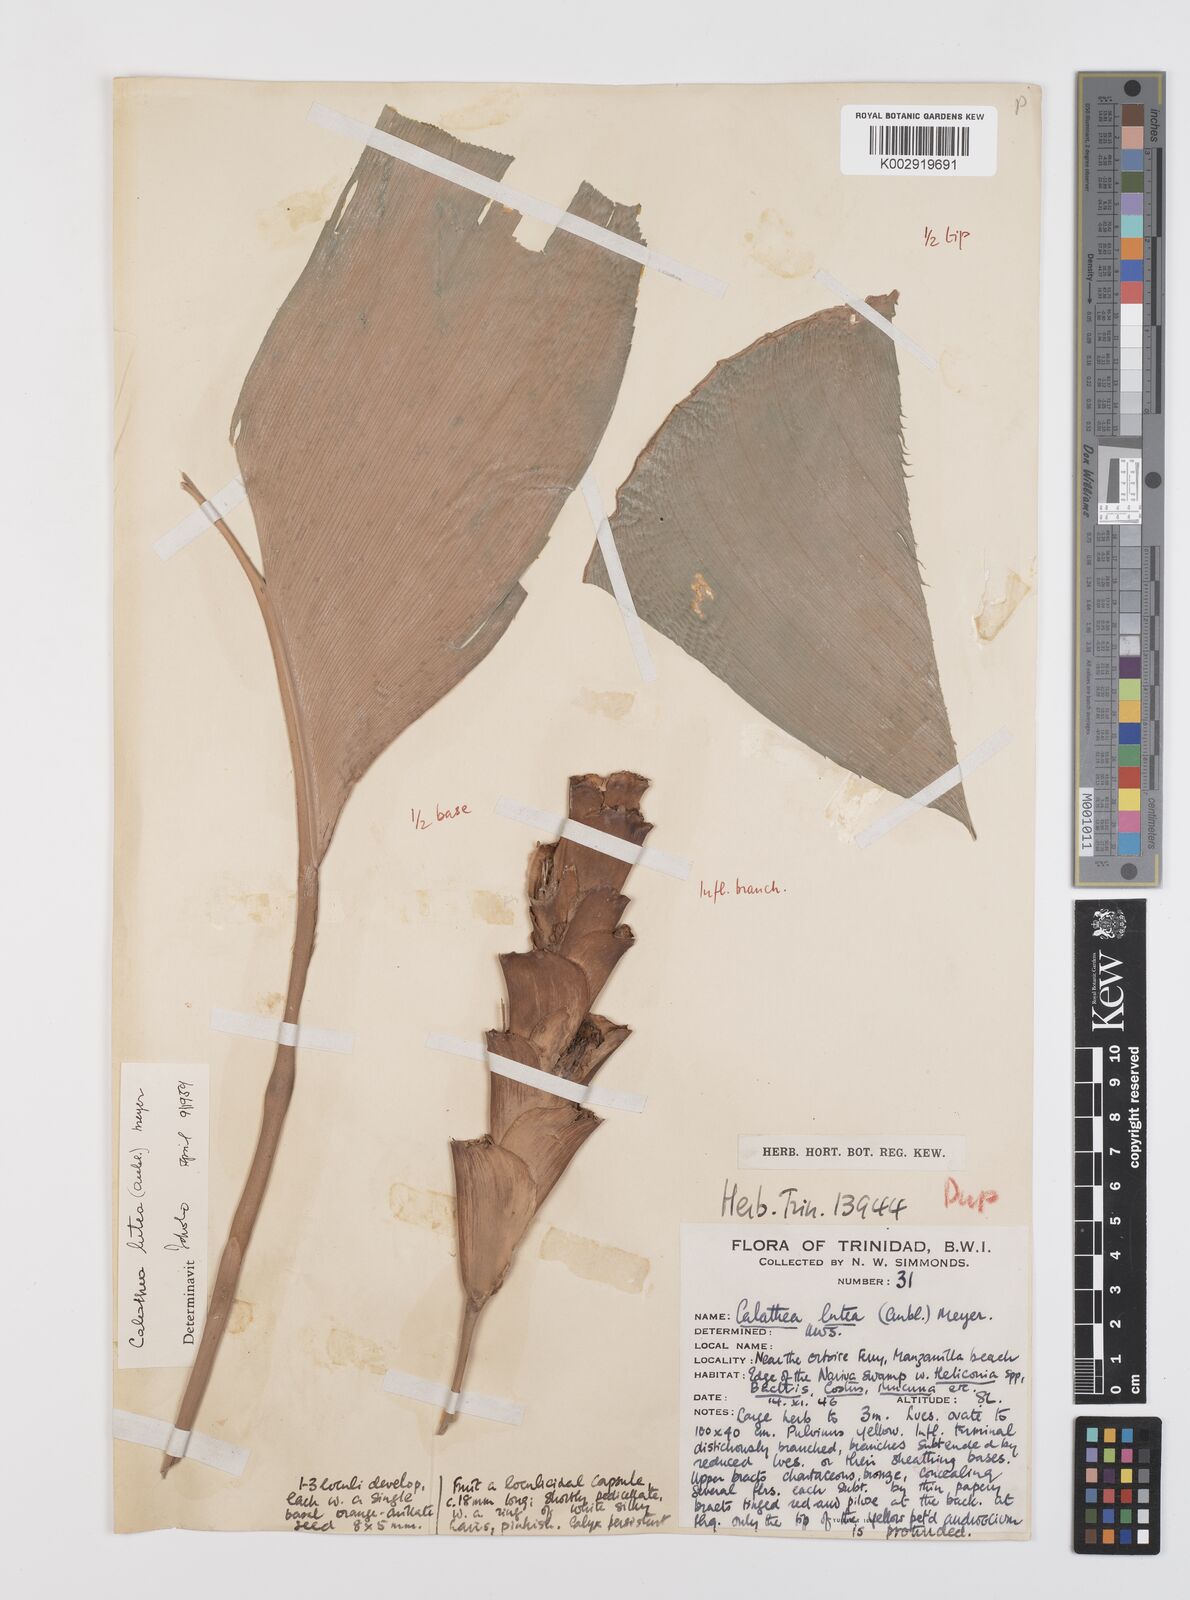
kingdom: Plantae
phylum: Tracheophyta
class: Liliopsida
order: Zingiberales
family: Marantaceae
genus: Calathea
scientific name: Calathea lutea
